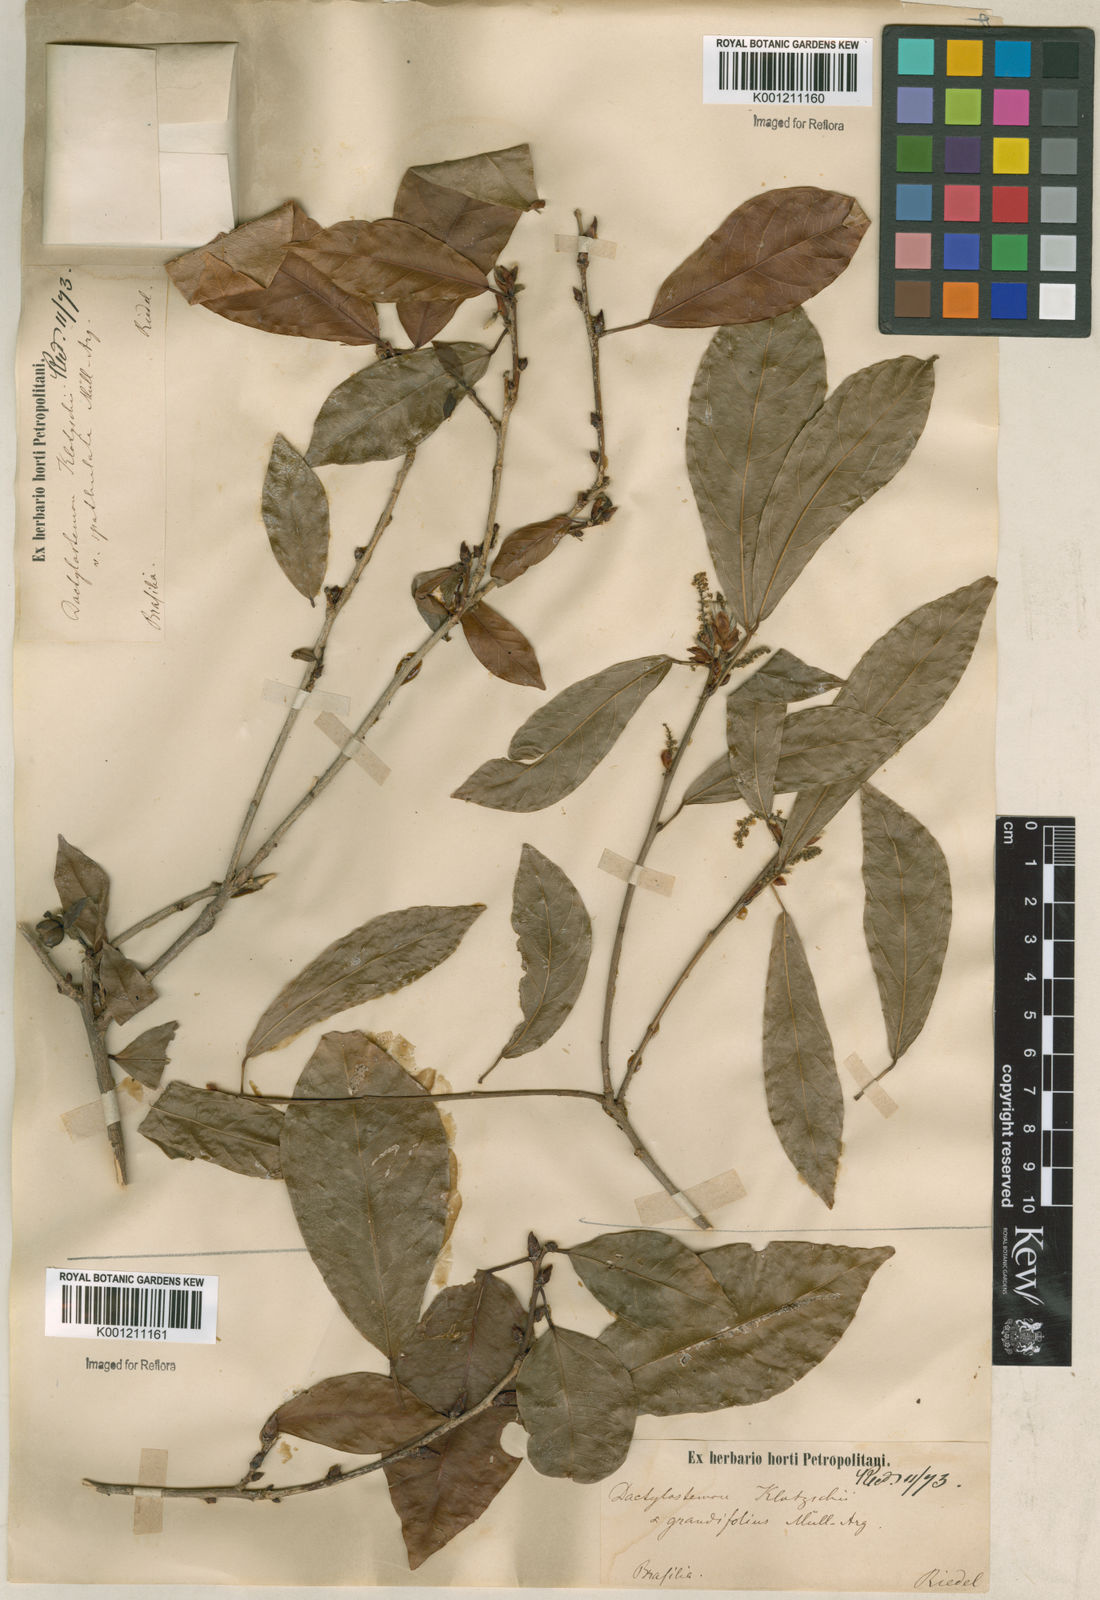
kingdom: Plantae
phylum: Tracheophyta
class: Magnoliopsida
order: Malpighiales
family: Euphorbiaceae
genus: Actinostemon
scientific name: Actinostemon klotzschii
